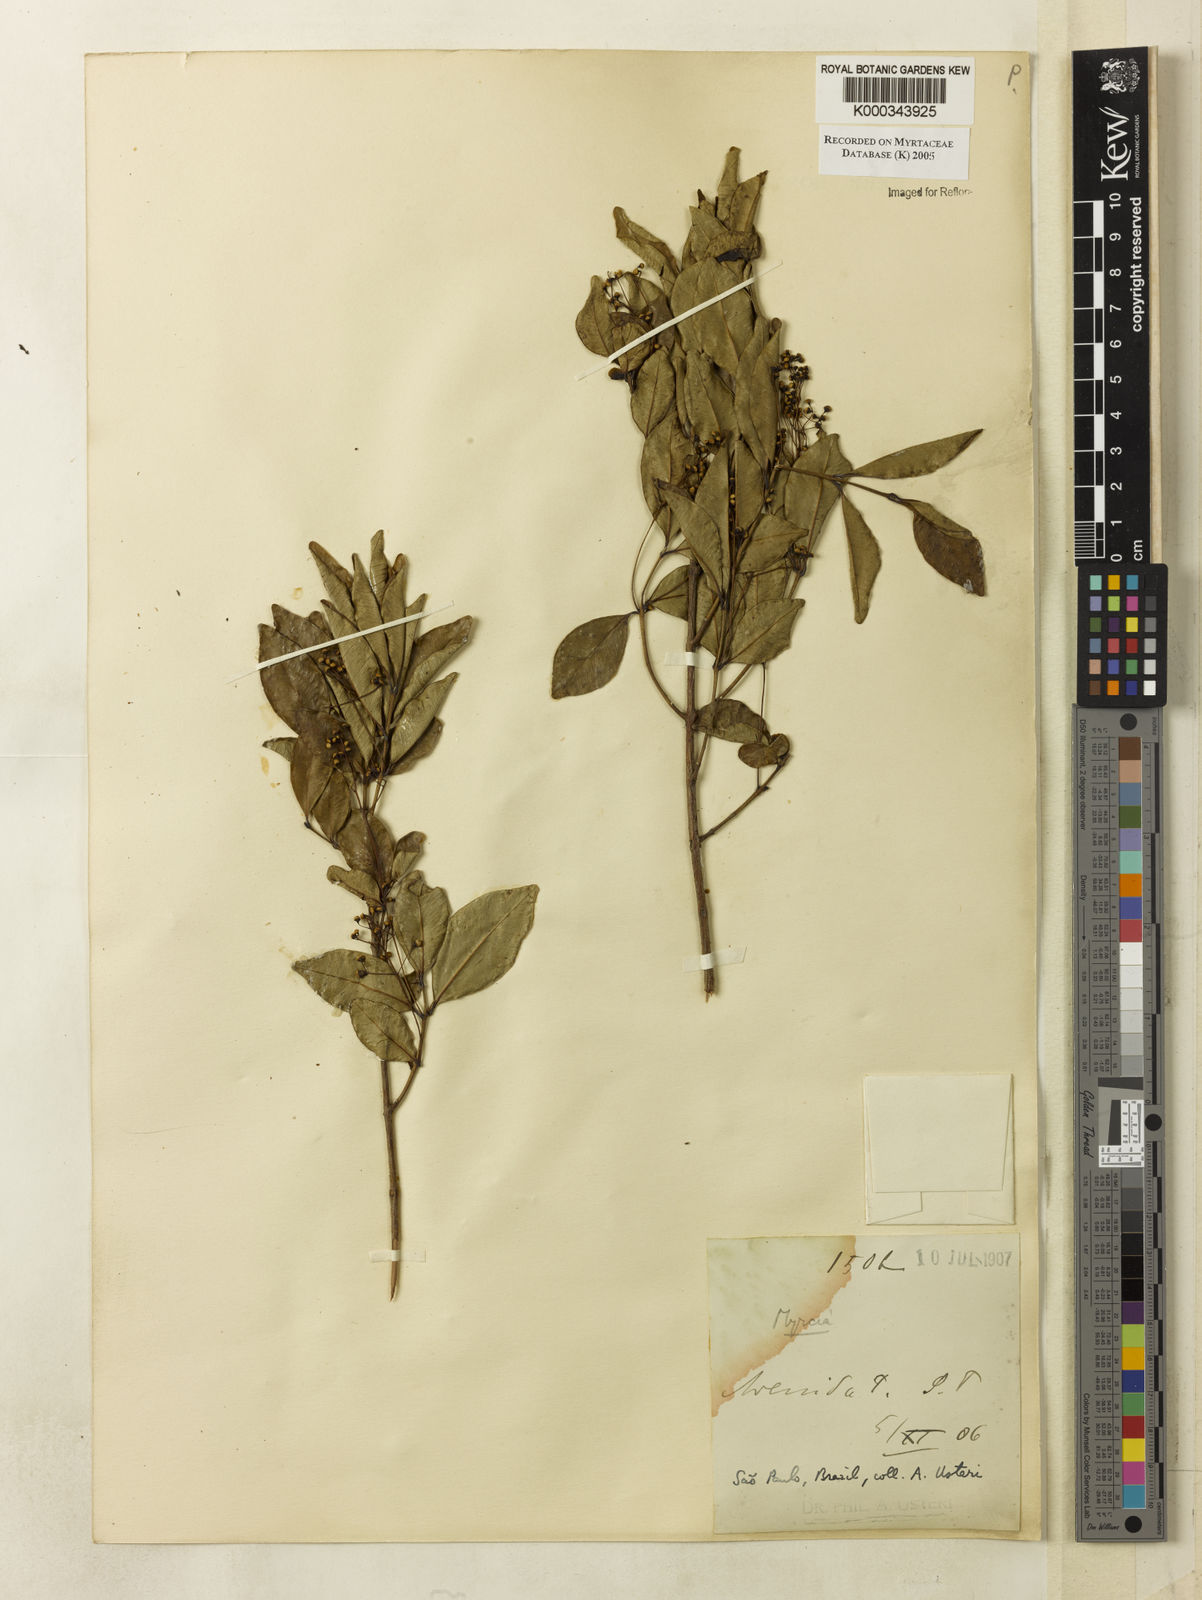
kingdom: Plantae
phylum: Tracheophyta
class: Magnoliopsida
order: Myrtales
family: Myrtaceae
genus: Myrcia
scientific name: Myrcia multiflora
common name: Pedra hume
